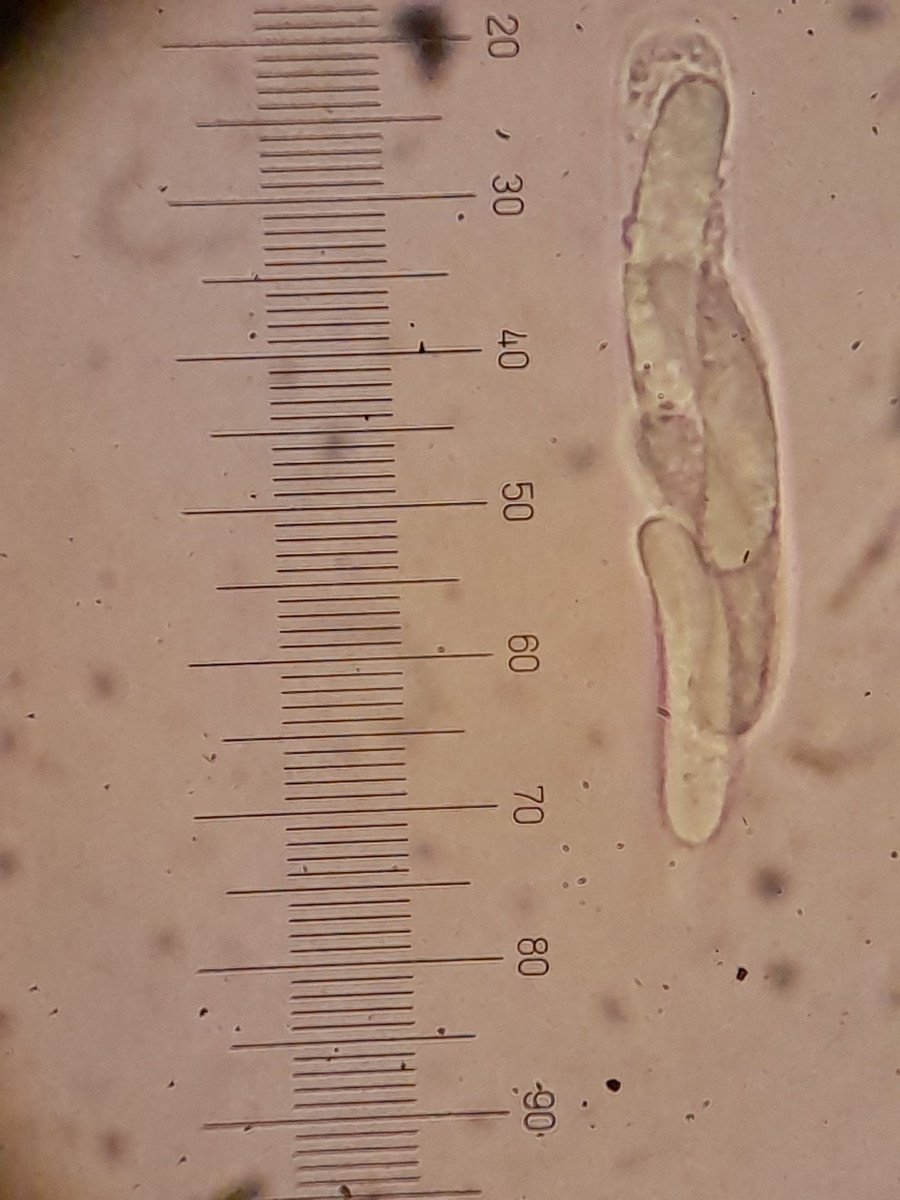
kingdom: Fungi
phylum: Ascomycota
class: Sordariomycetes
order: Diaporthales
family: Valsaceae
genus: Valsa
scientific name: Valsa salicina
